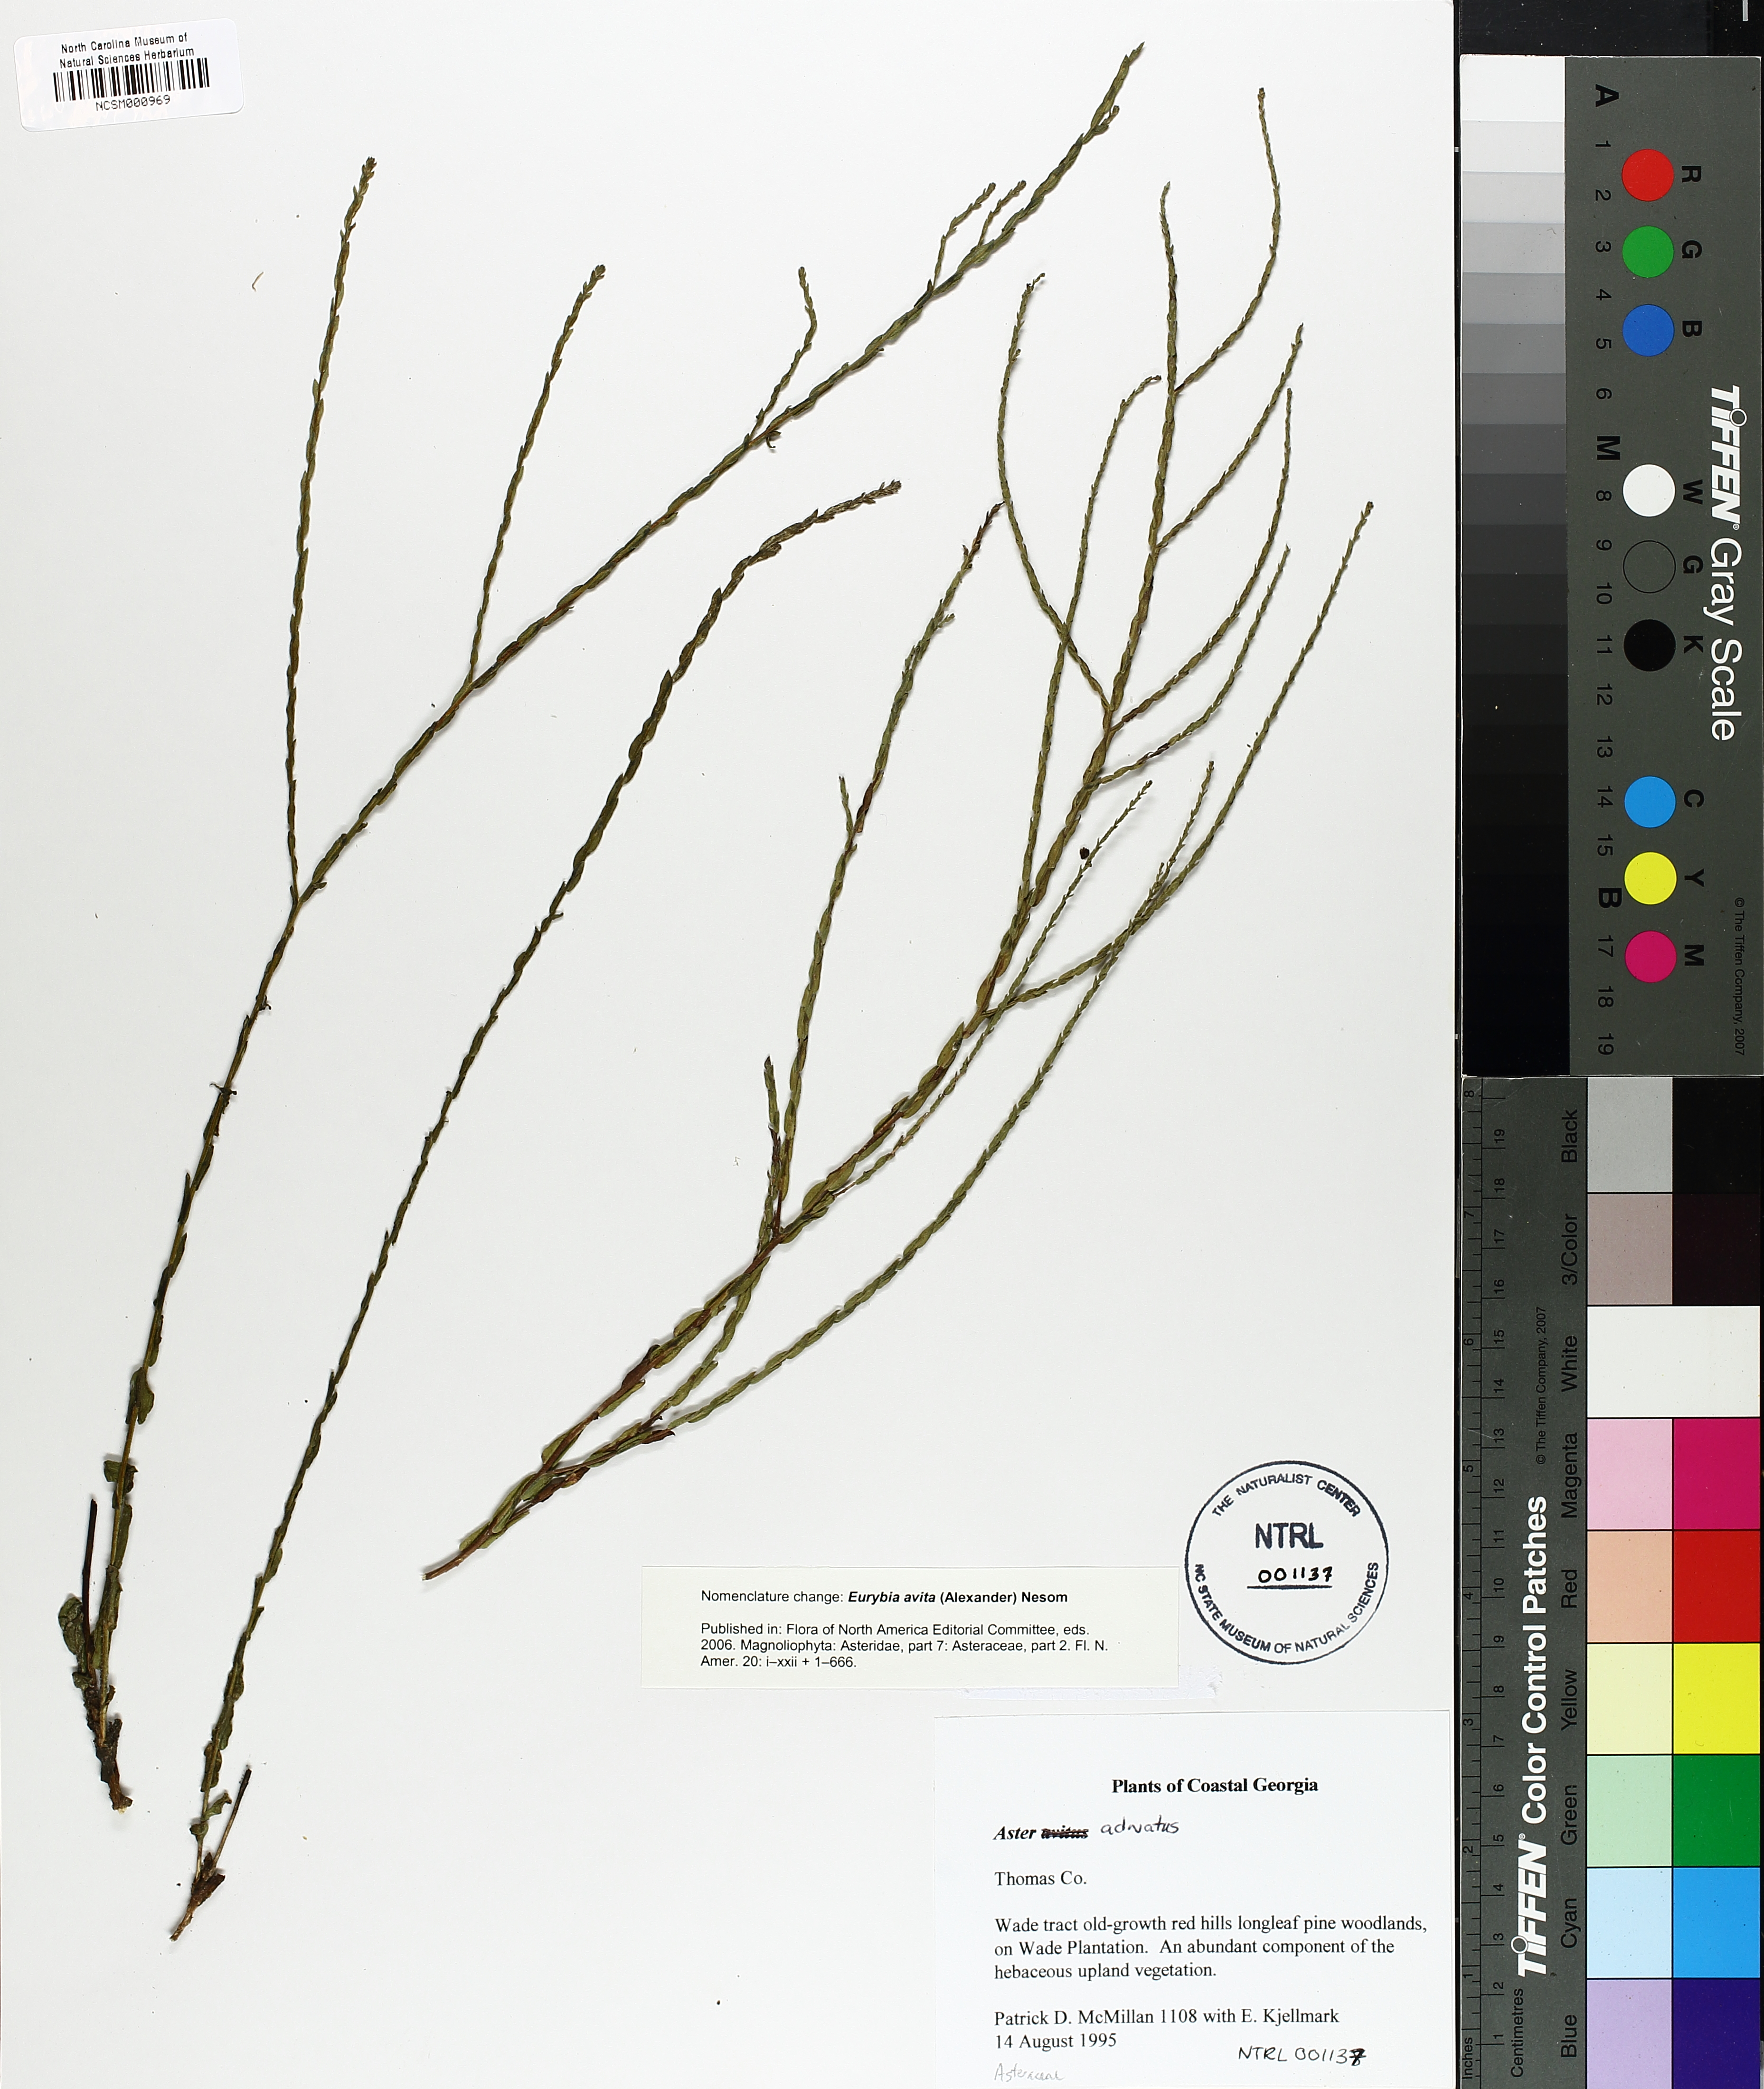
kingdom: Plantae
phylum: Tracheophyta
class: Magnoliopsida
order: Asterales
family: Asteraceae
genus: Eurybia
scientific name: Eurybia avita
